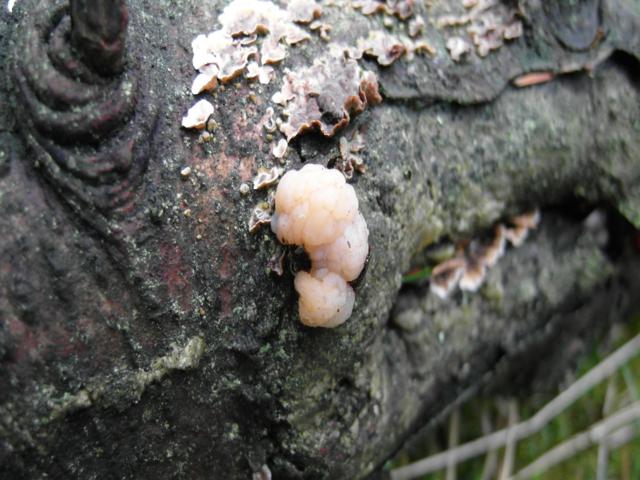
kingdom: Fungi
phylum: Basidiomycota
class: Tremellomycetes
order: Tremellales
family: Naemateliaceae
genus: Naematelia
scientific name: Naematelia encephala
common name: fyrre-bævresvamp
